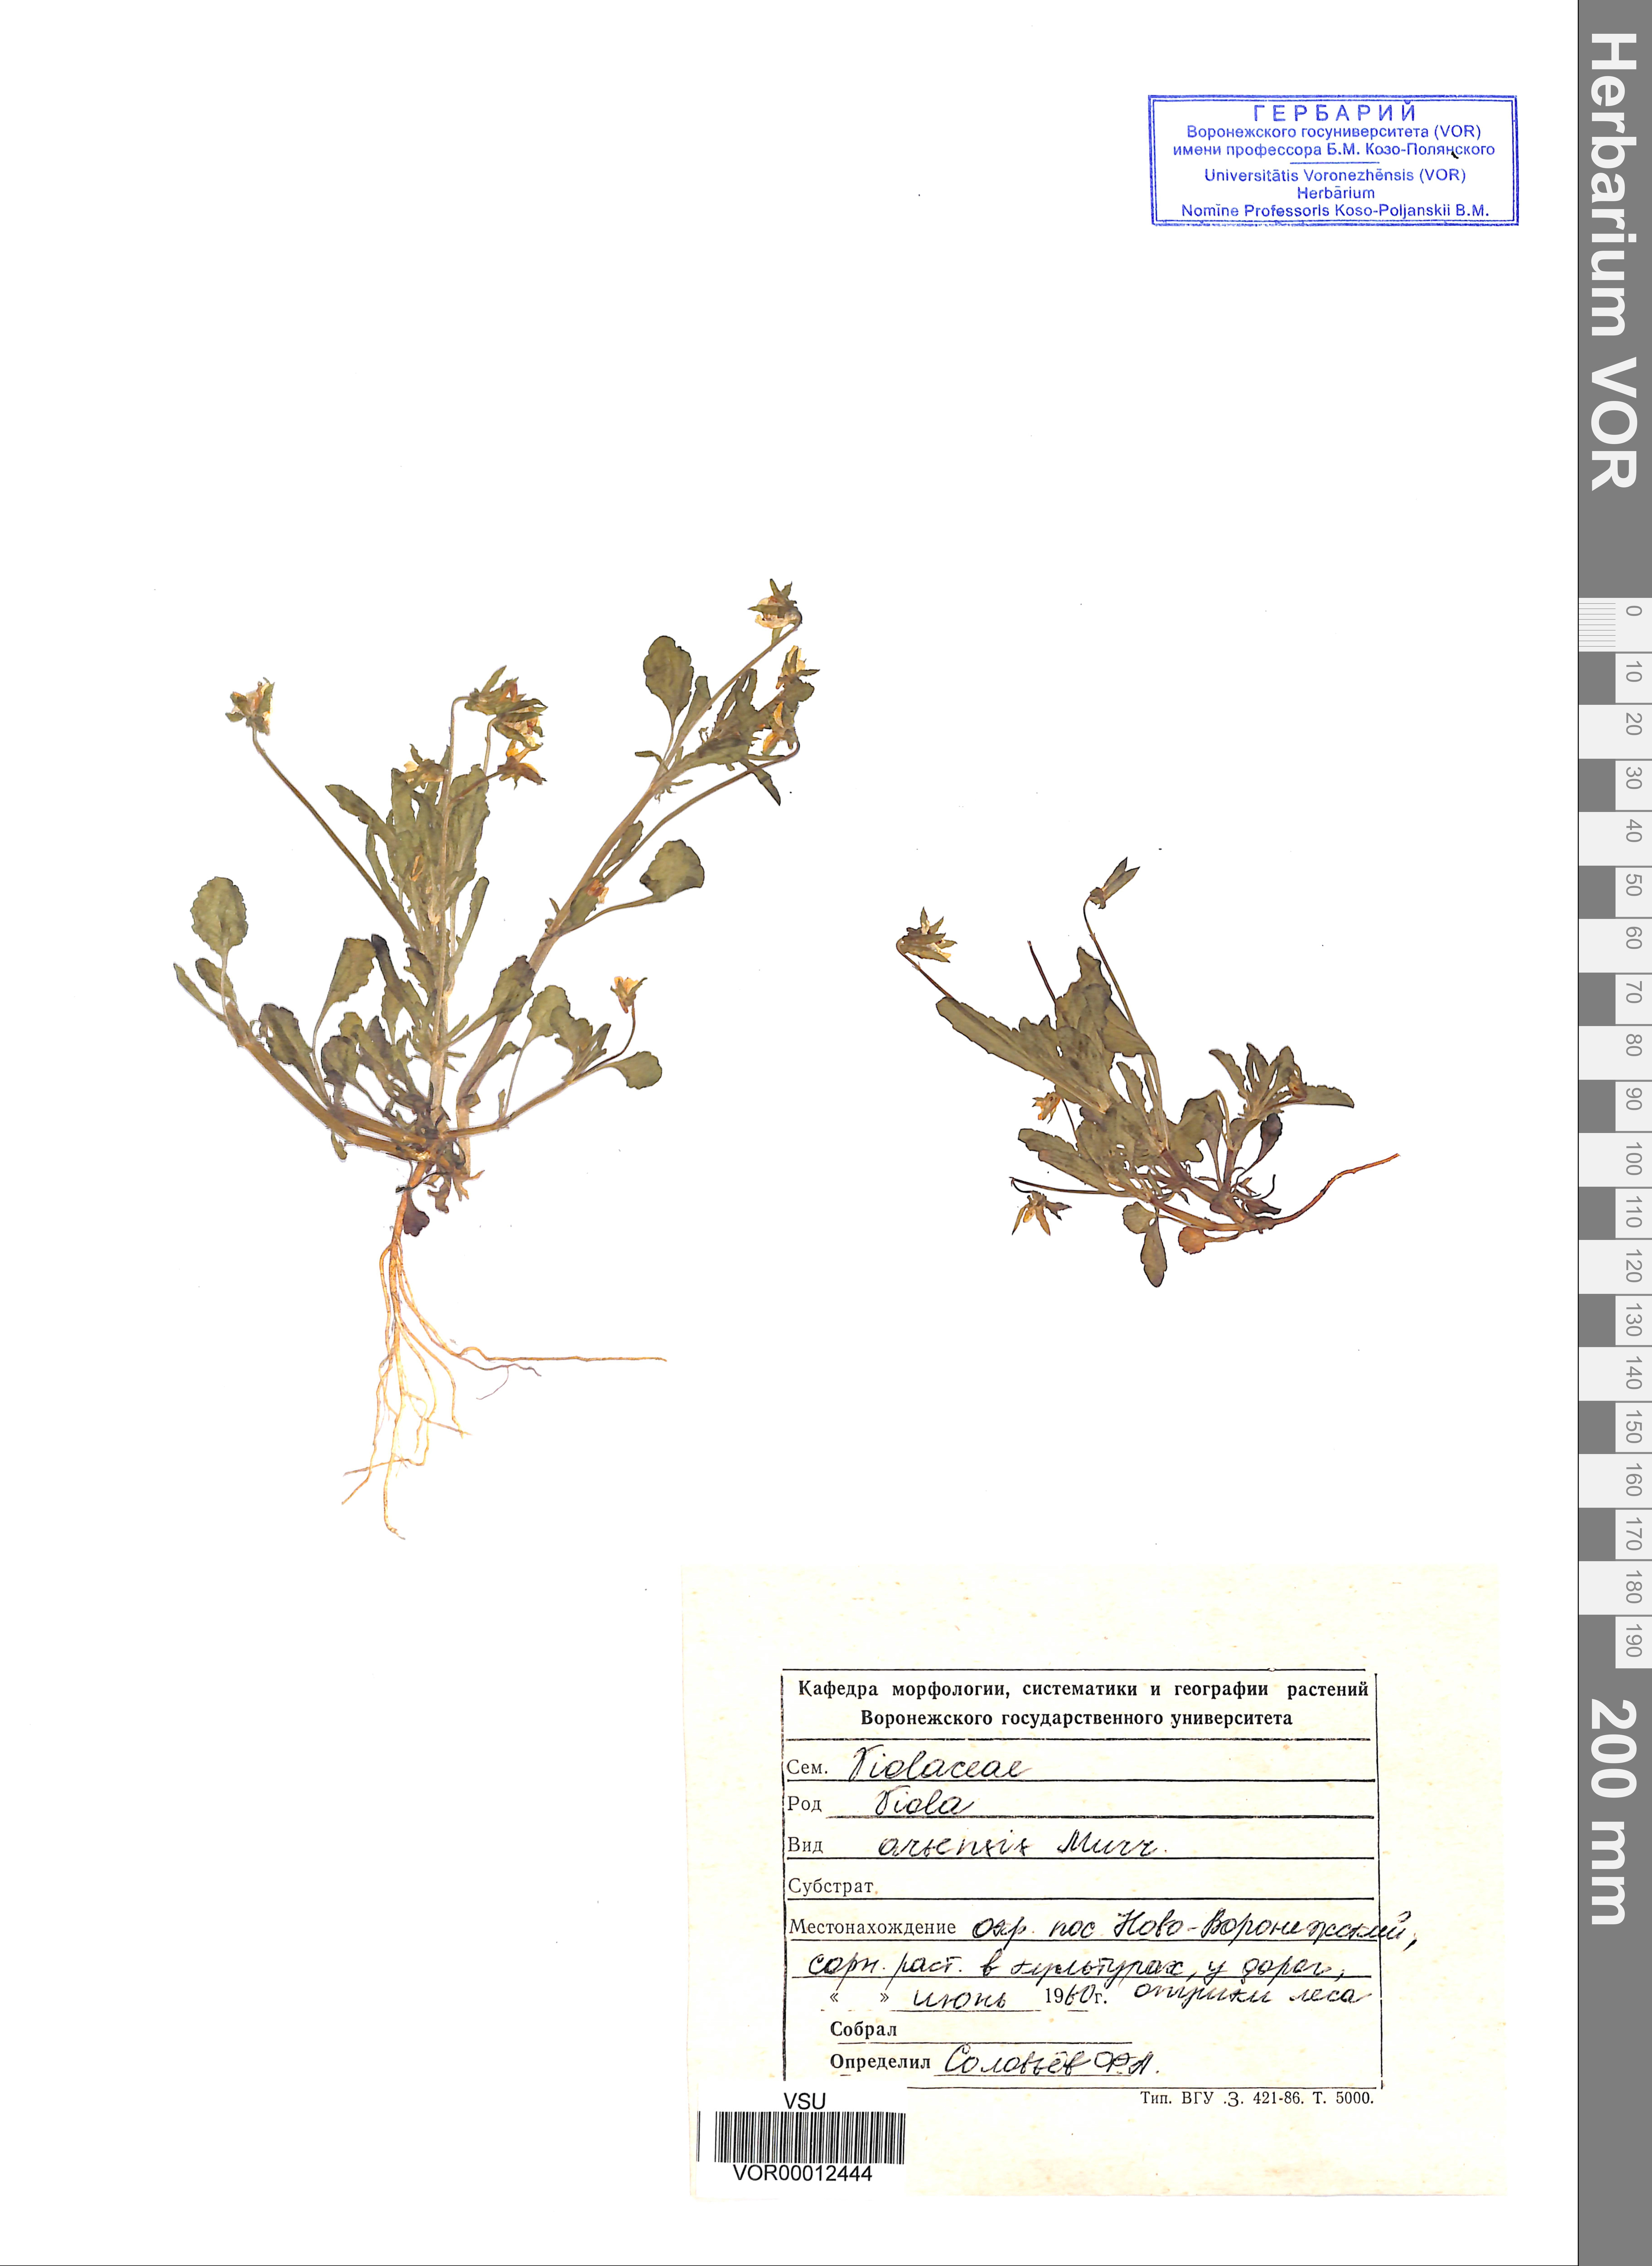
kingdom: Plantae
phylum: Tracheophyta
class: Magnoliopsida
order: Malpighiales
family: Violaceae
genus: Viola
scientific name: Viola arvensis
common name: Field pansy
